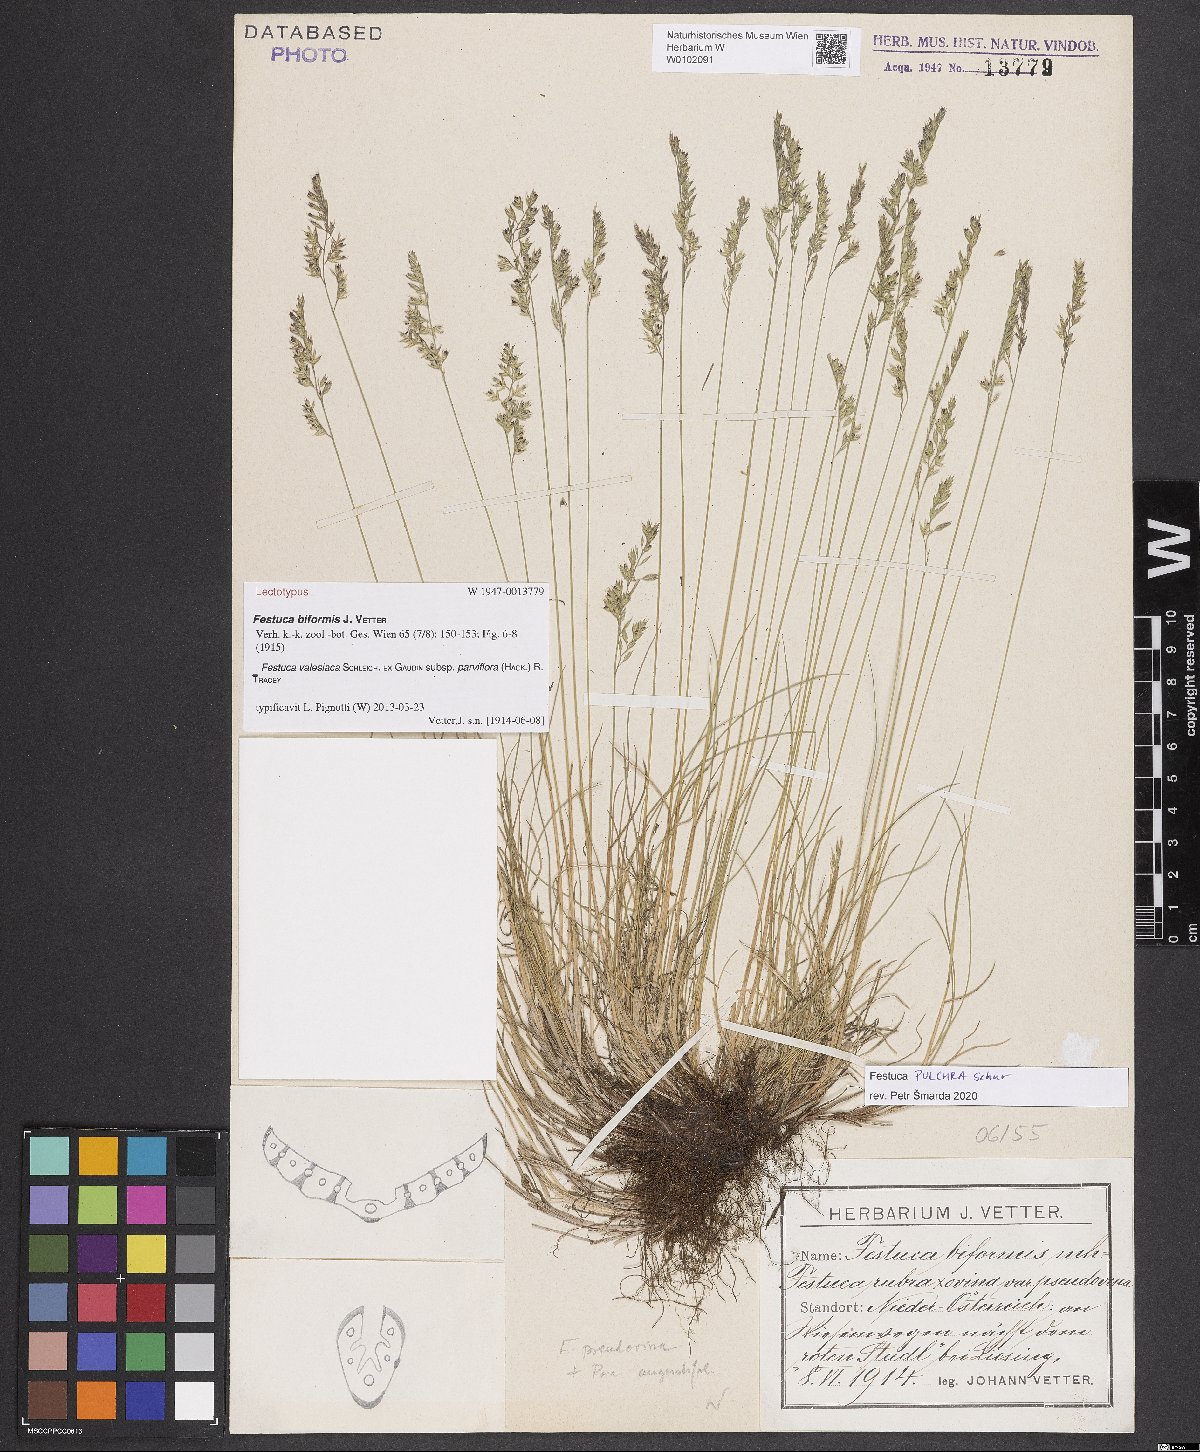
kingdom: Plantae
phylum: Tracheophyta
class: Liliopsida
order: Poales
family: Poaceae
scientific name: Poaceae
